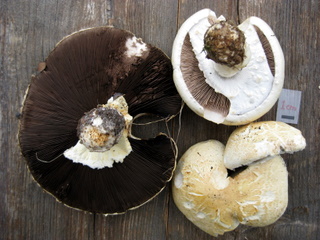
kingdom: Fungi
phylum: Basidiomycota
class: Agaricomycetes
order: Agaricales
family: Agaricaceae
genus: Agaricus
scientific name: Agaricus arvensis
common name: ager-champignon
